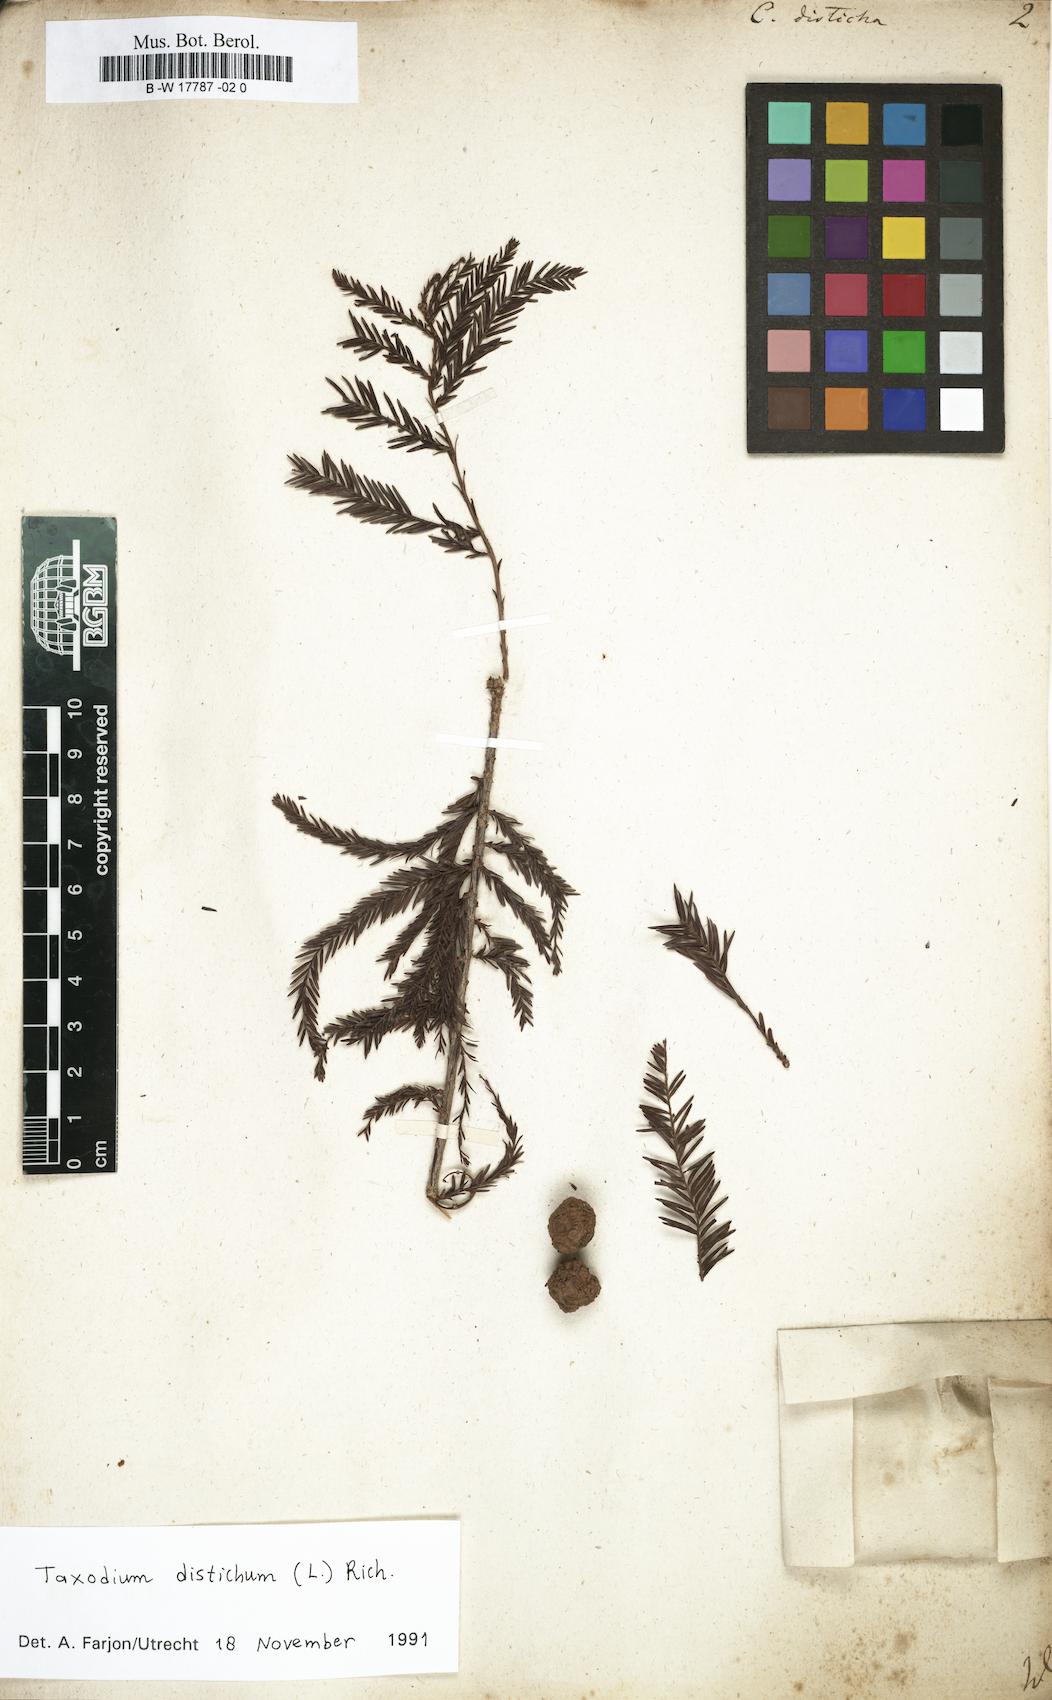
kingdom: Plantae
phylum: Tracheophyta
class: Pinopsida
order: Pinales
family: Cupressaceae
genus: Taxodium
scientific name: Taxodium distichum
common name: Bald cypress
